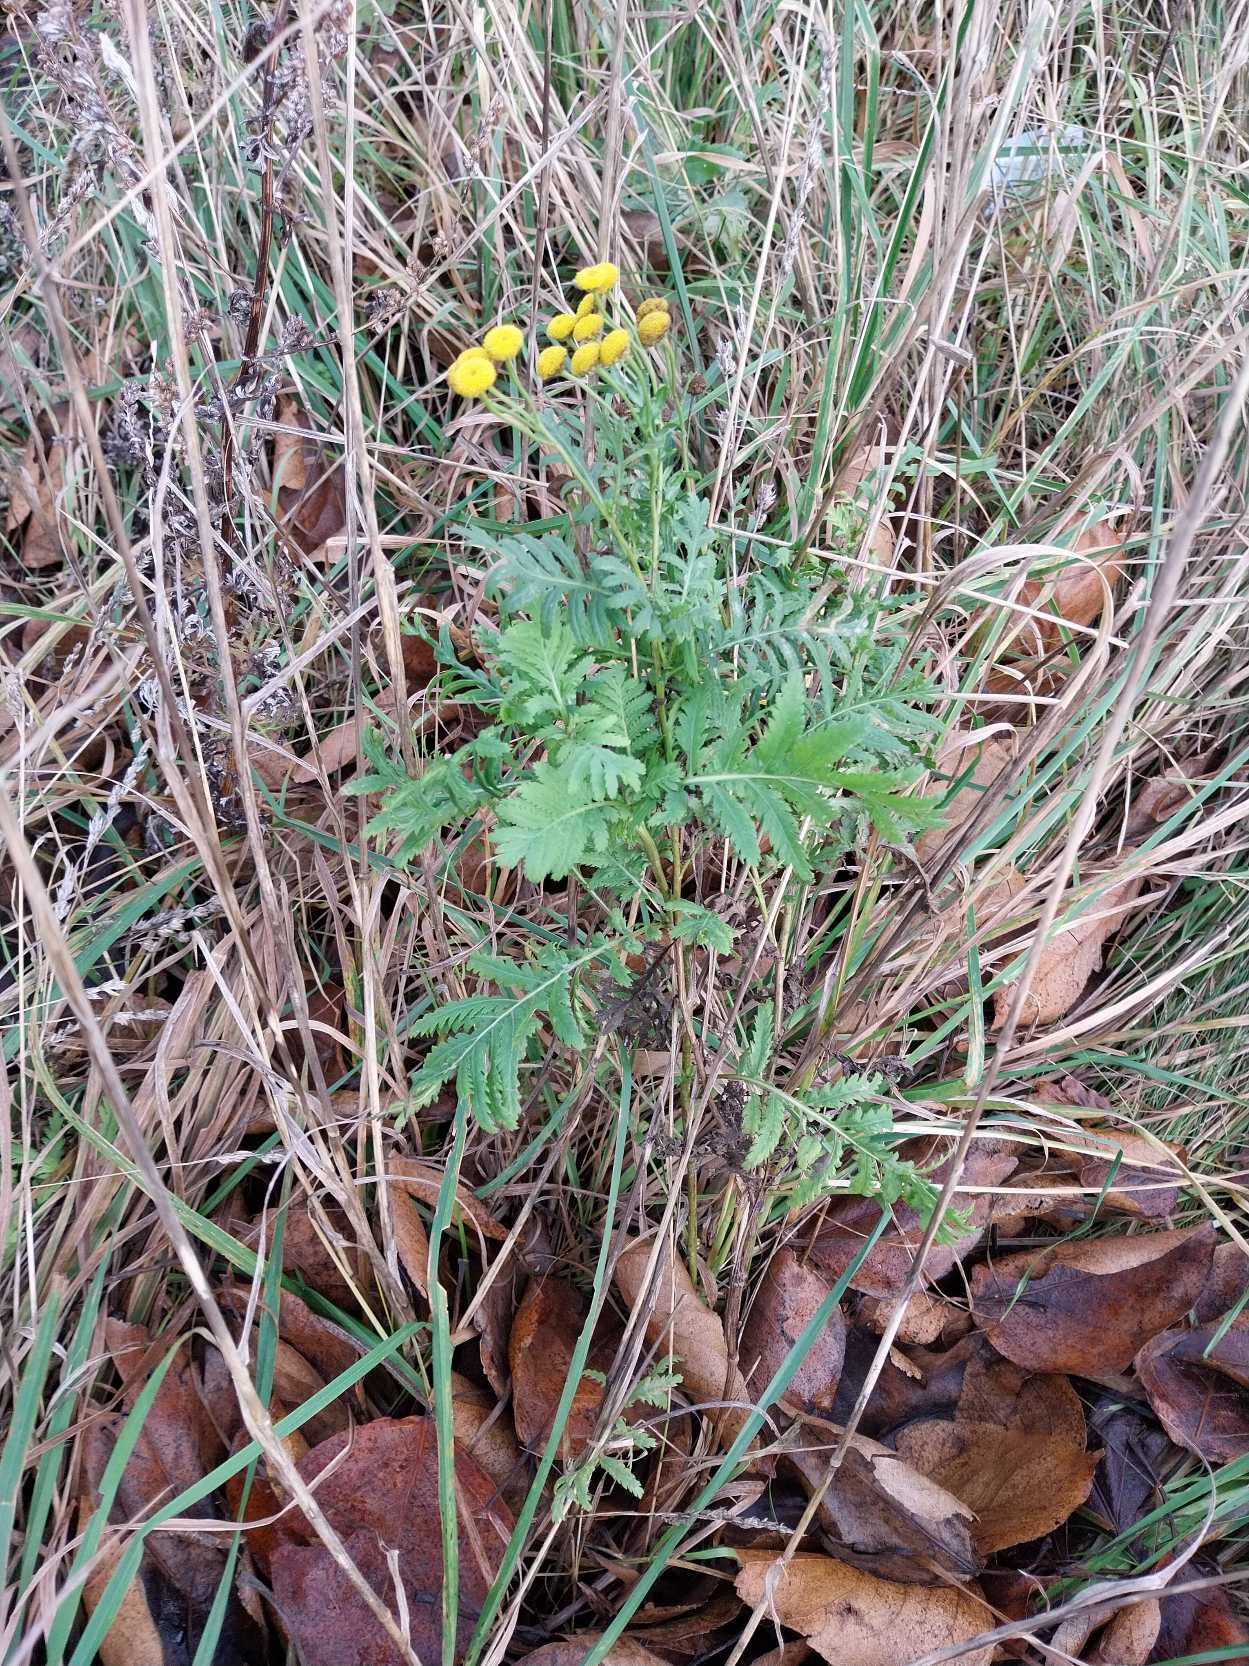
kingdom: Plantae
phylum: Tracheophyta
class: Magnoliopsida
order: Asterales
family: Asteraceae
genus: Tanacetum
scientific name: Tanacetum vulgare
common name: Rejnfan
